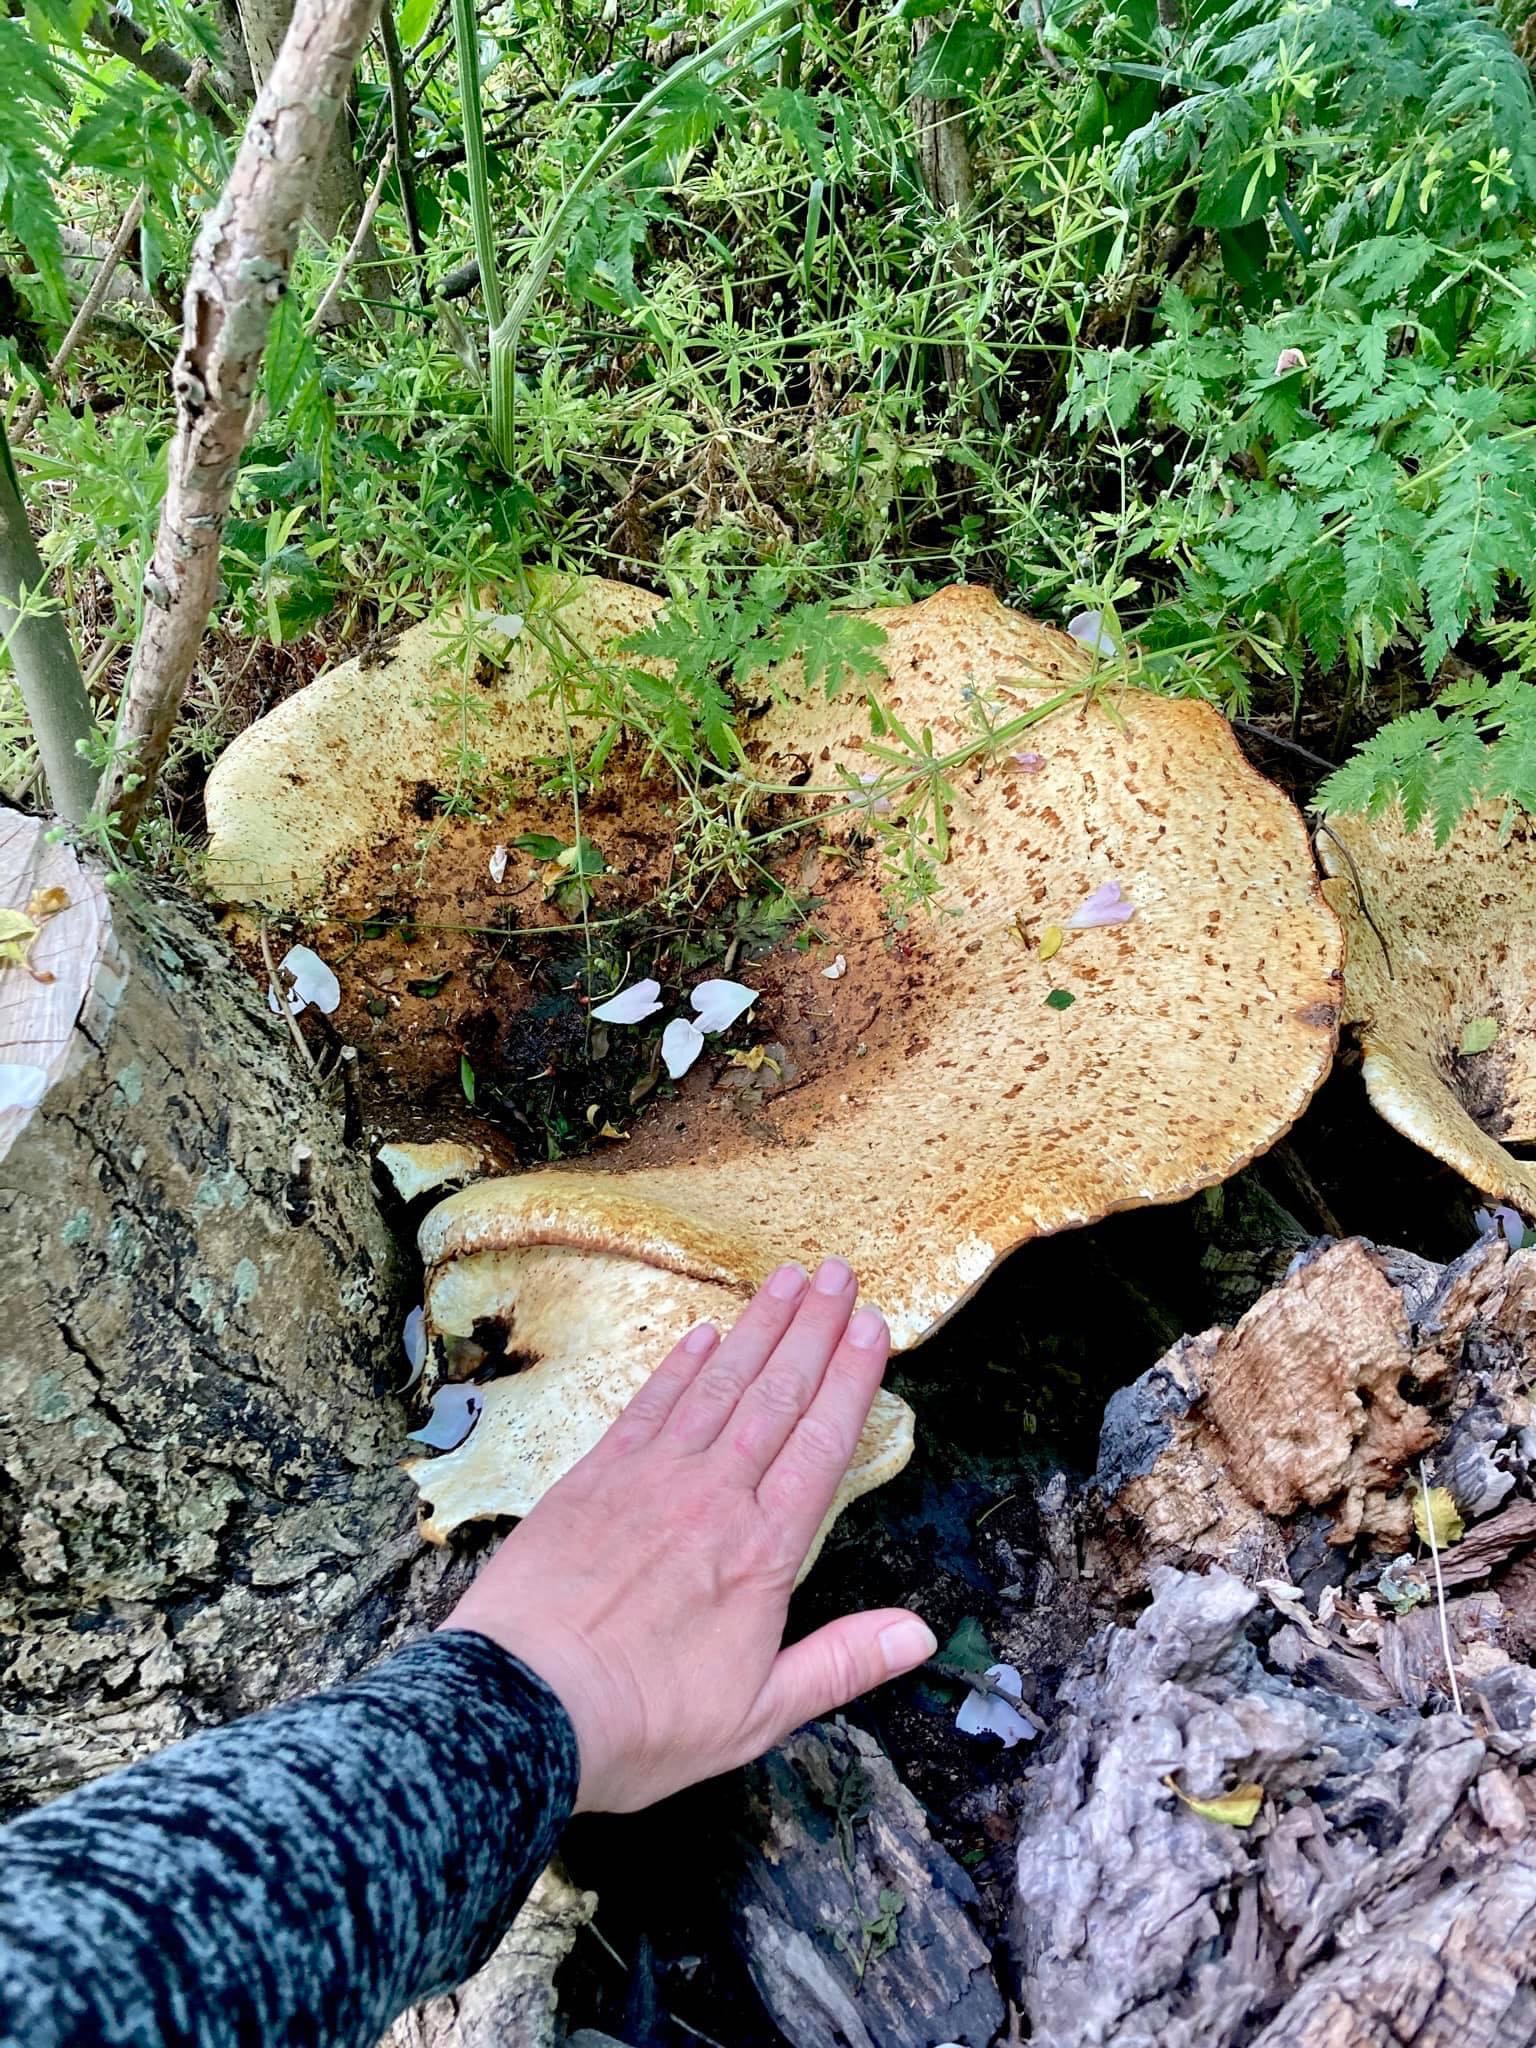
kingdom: Fungi
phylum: Basidiomycota
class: Agaricomycetes
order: Polyporales
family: Polyporaceae
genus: Cerioporus
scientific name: Cerioporus squamosus
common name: skællet stilkporesvamp
